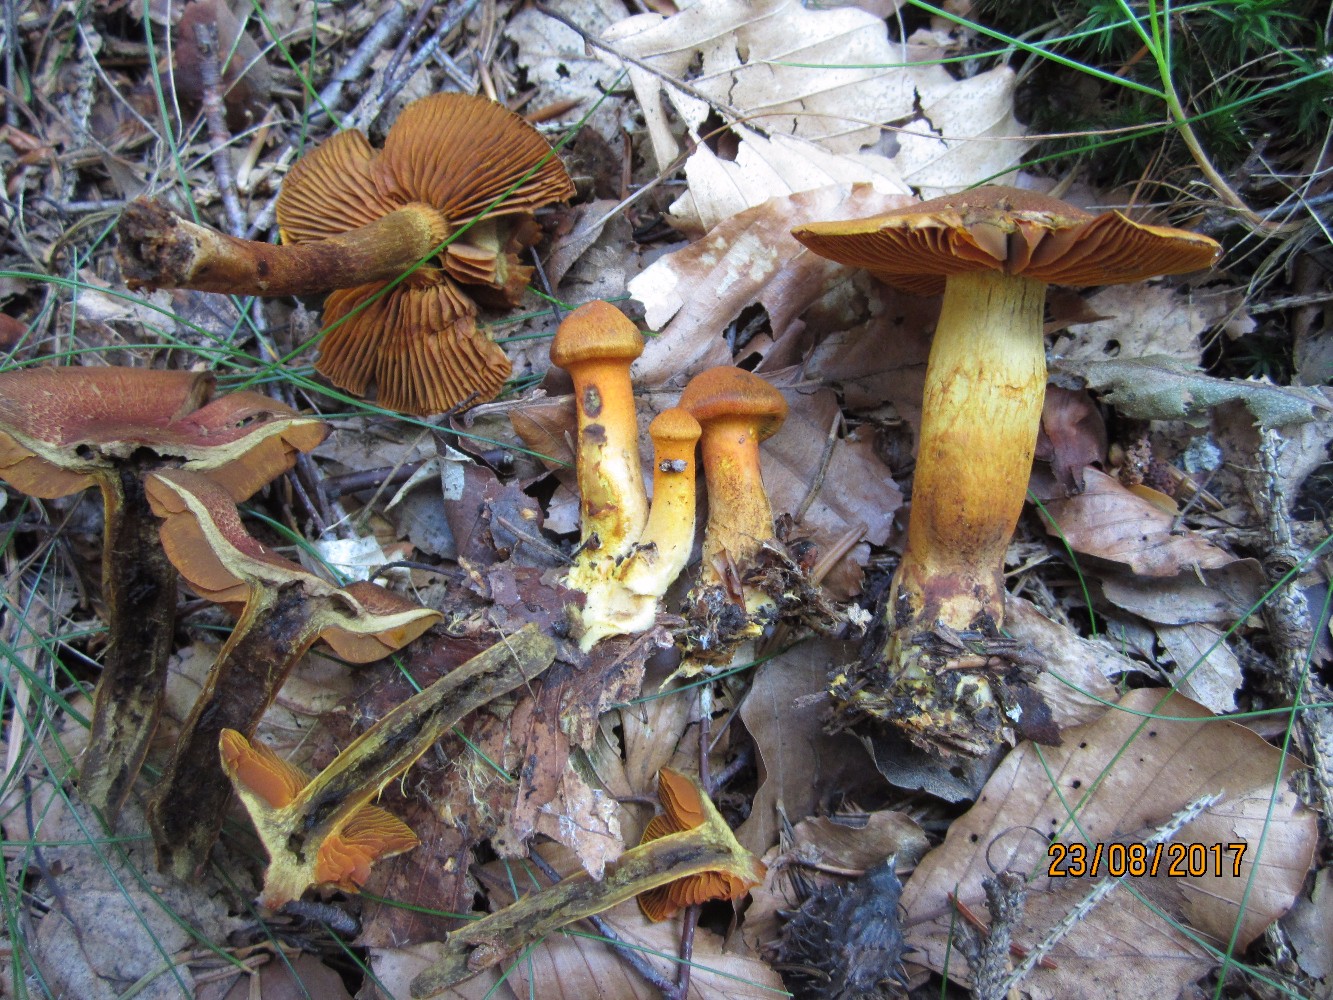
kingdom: Fungi
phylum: Basidiomycota
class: Agaricomycetes
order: Agaricales
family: Cortinariaceae
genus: Cortinarius
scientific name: Cortinarius malicorius
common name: grønkødet slørhat
